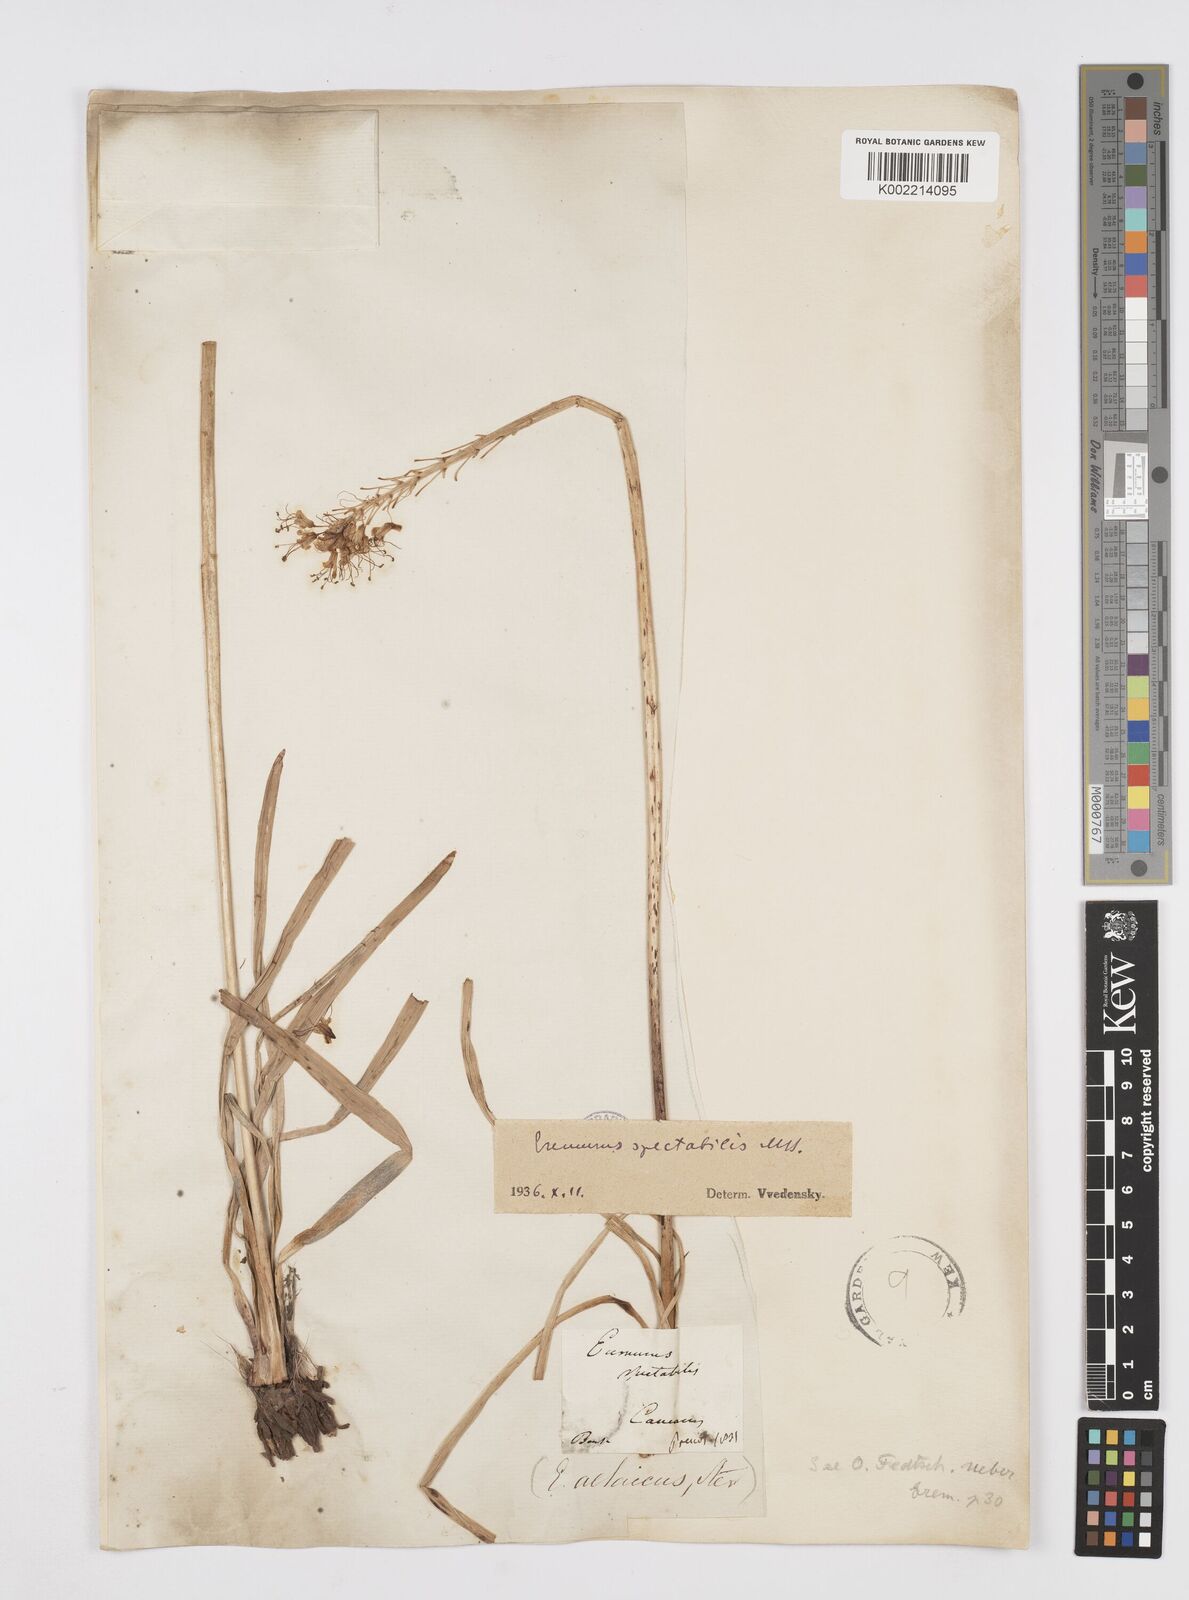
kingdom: Plantae
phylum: Tracheophyta
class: Liliopsida
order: Asparagales
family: Asphodelaceae
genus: Eremurus
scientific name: Eremurus spectabilis
